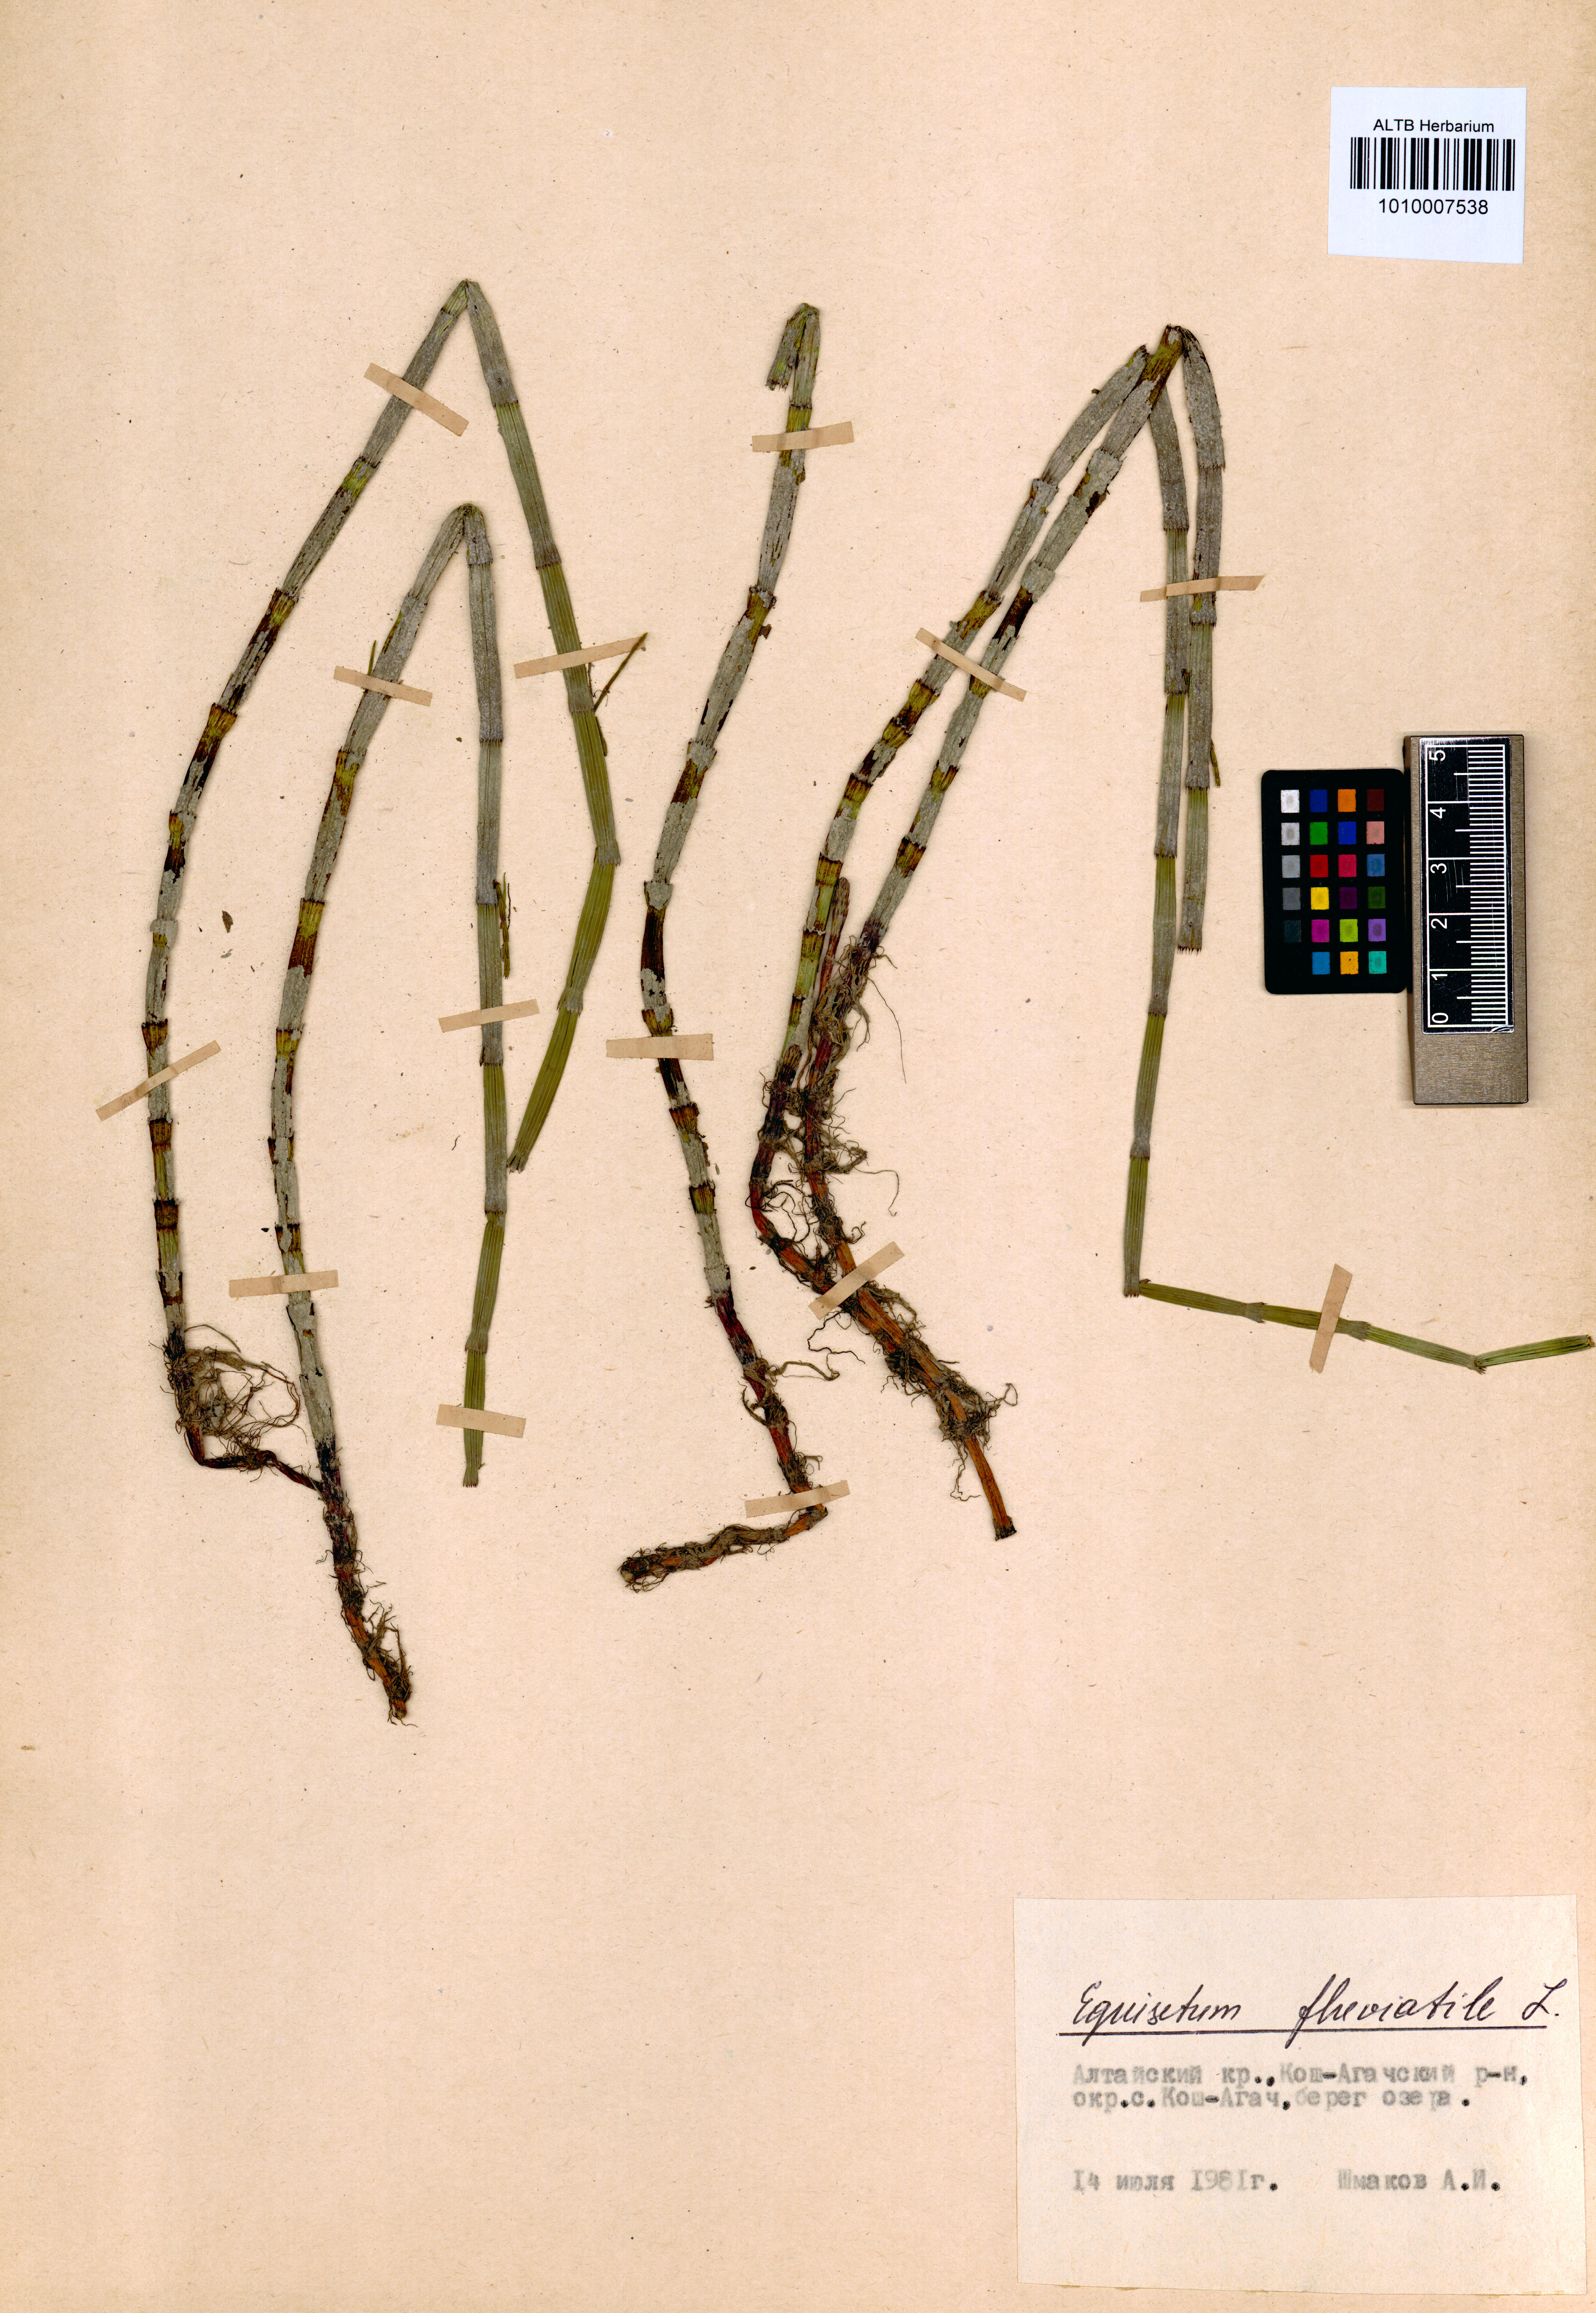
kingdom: Plantae
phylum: Tracheophyta
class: Polypodiopsida
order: Equisetales
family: Equisetaceae
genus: Equisetum
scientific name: Equisetum fluviatile
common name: Water horsetail
